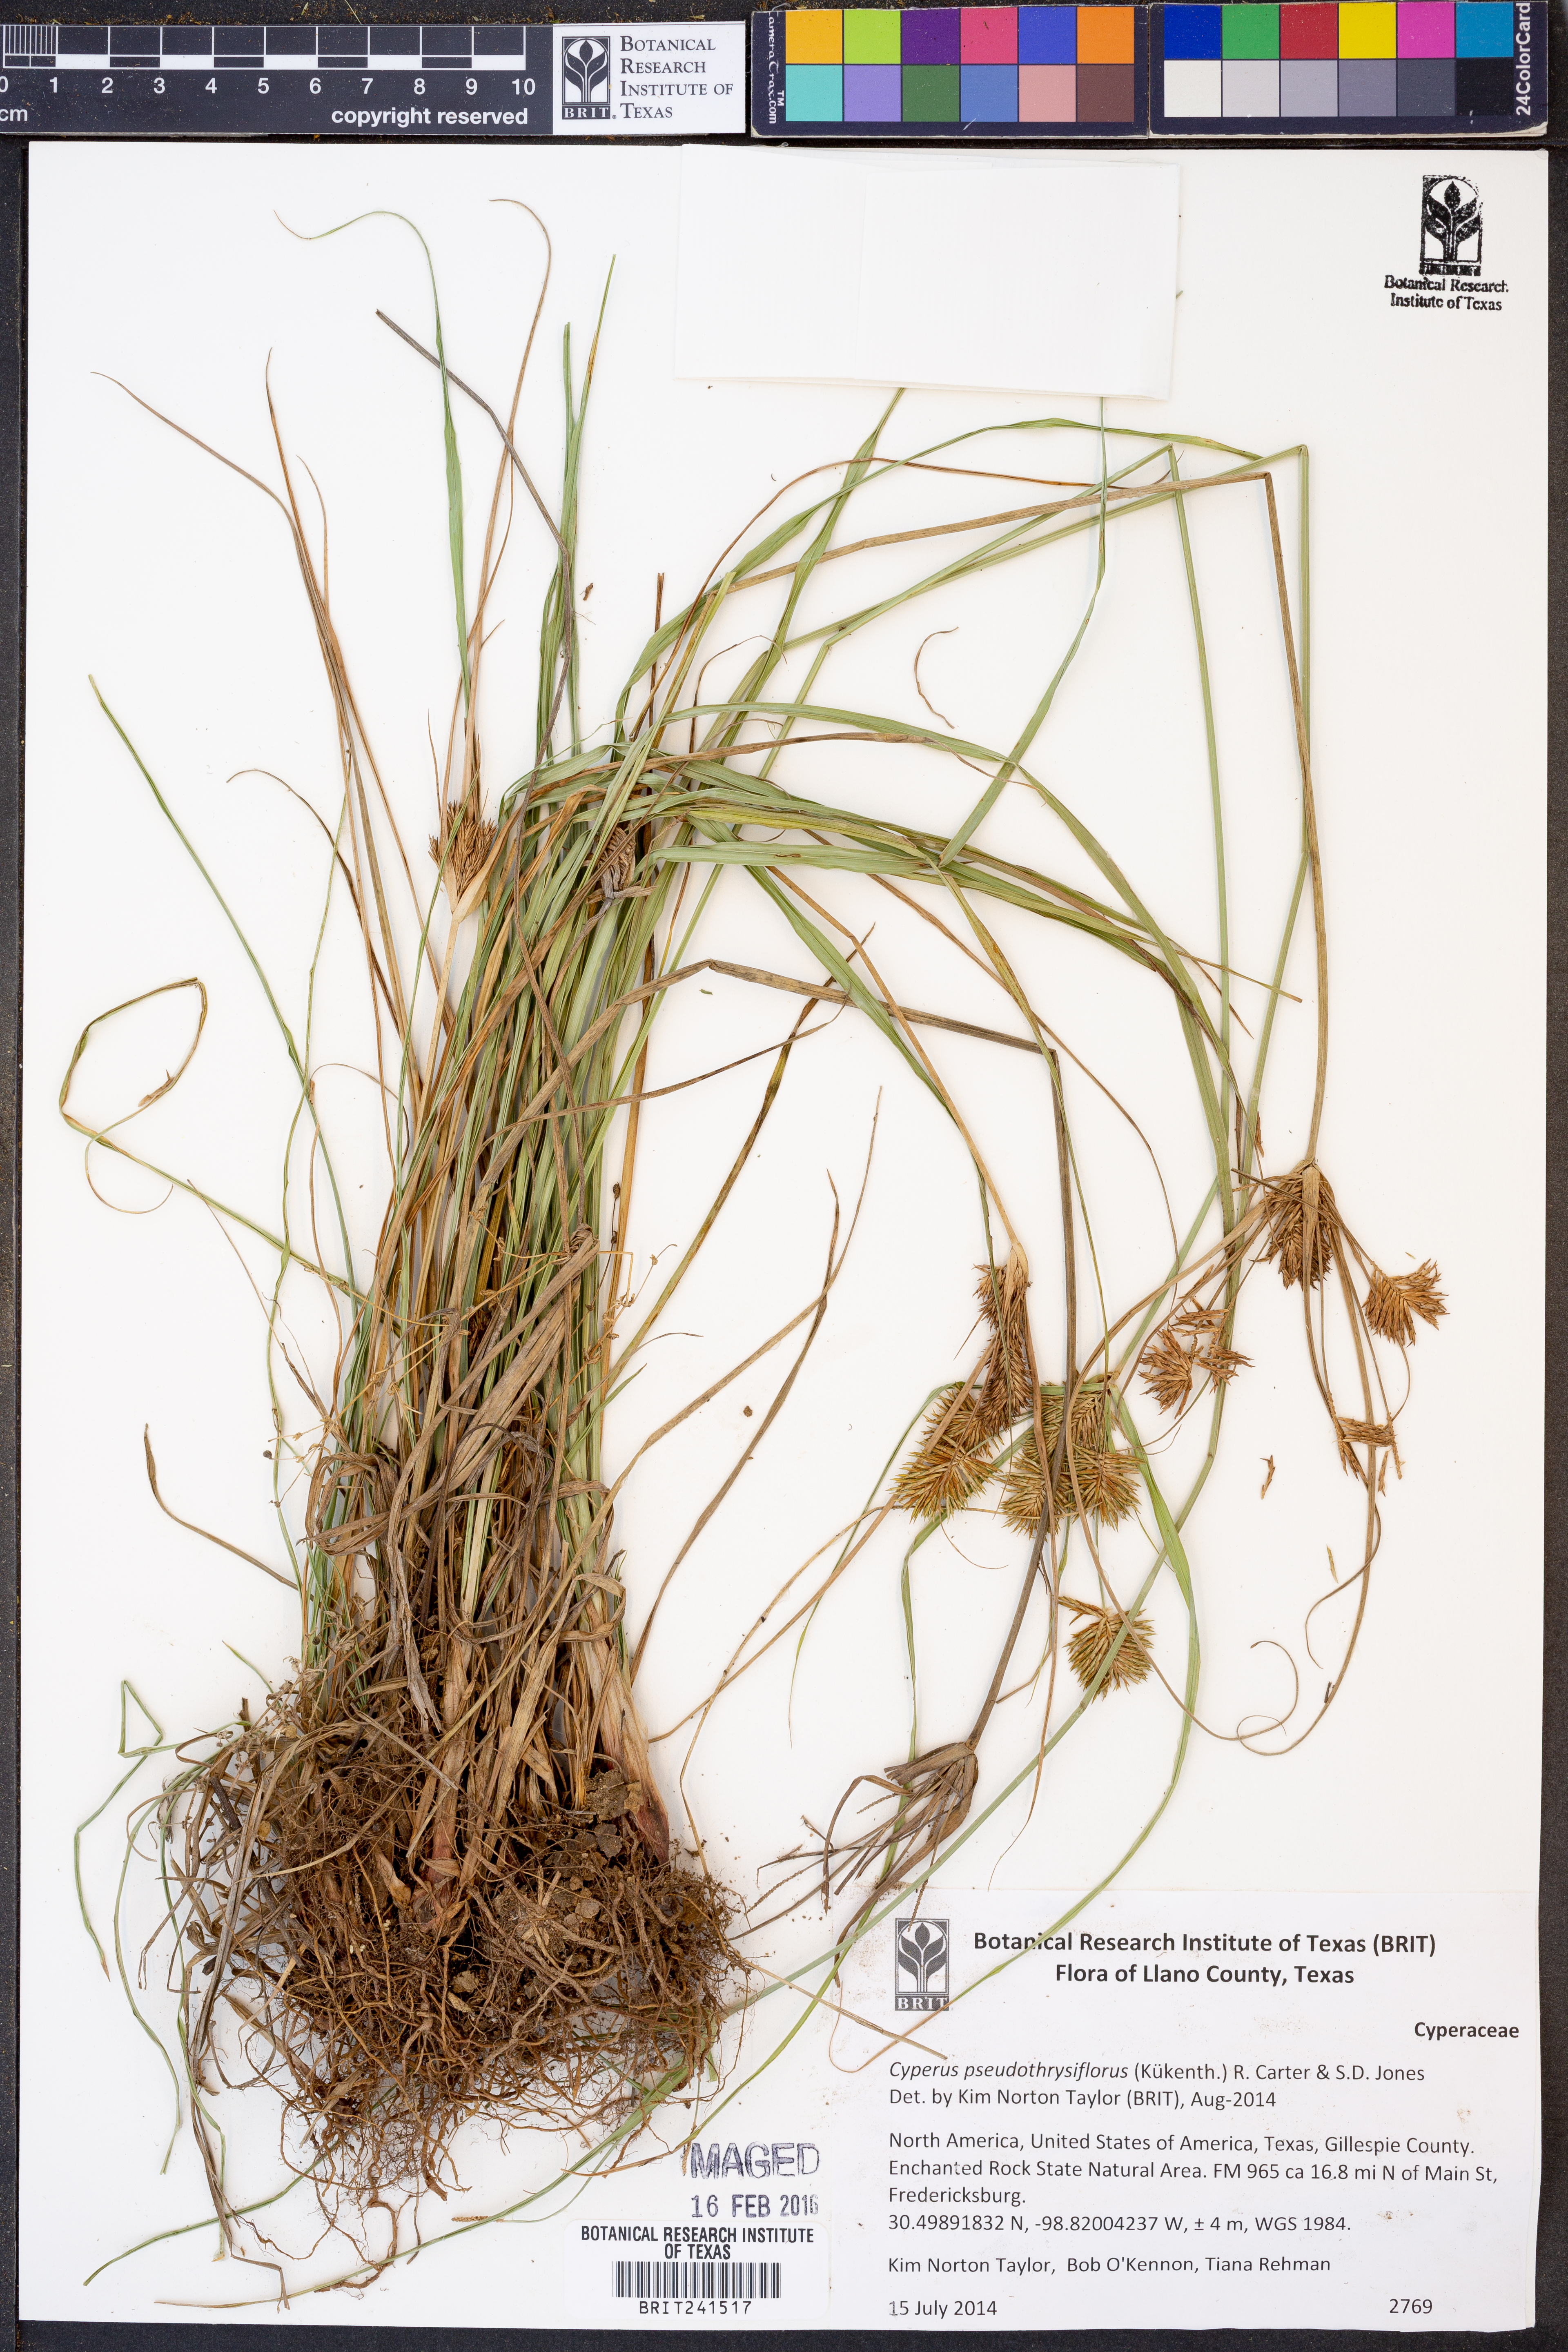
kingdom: Plantae
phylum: Tracheophyta
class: Liliopsida
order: Poales
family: Cyperaceae
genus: Cyperus
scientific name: Cyperus pseudothyrsiflorus
